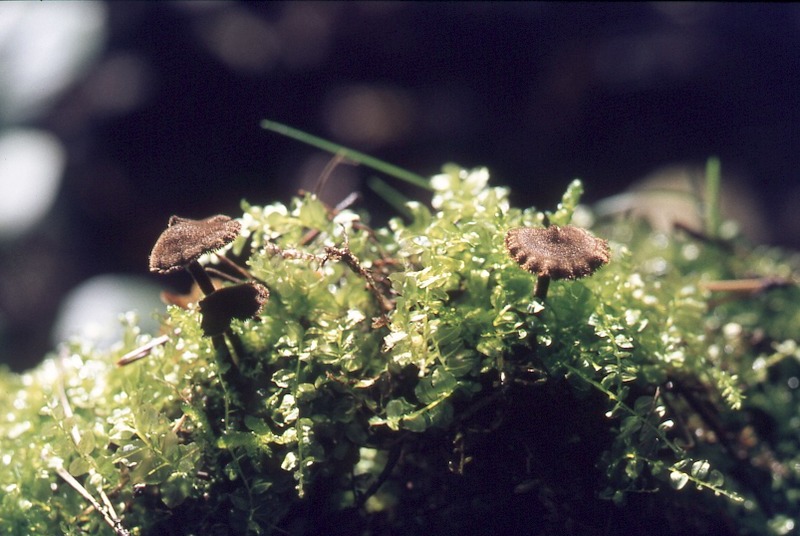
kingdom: Fungi
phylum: Basidiomycota
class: Agaricomycetes
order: Russulales
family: Auriscalpiaceae
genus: Auriscalpium
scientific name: Auriscalpium vulgare
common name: Earpick fungus
